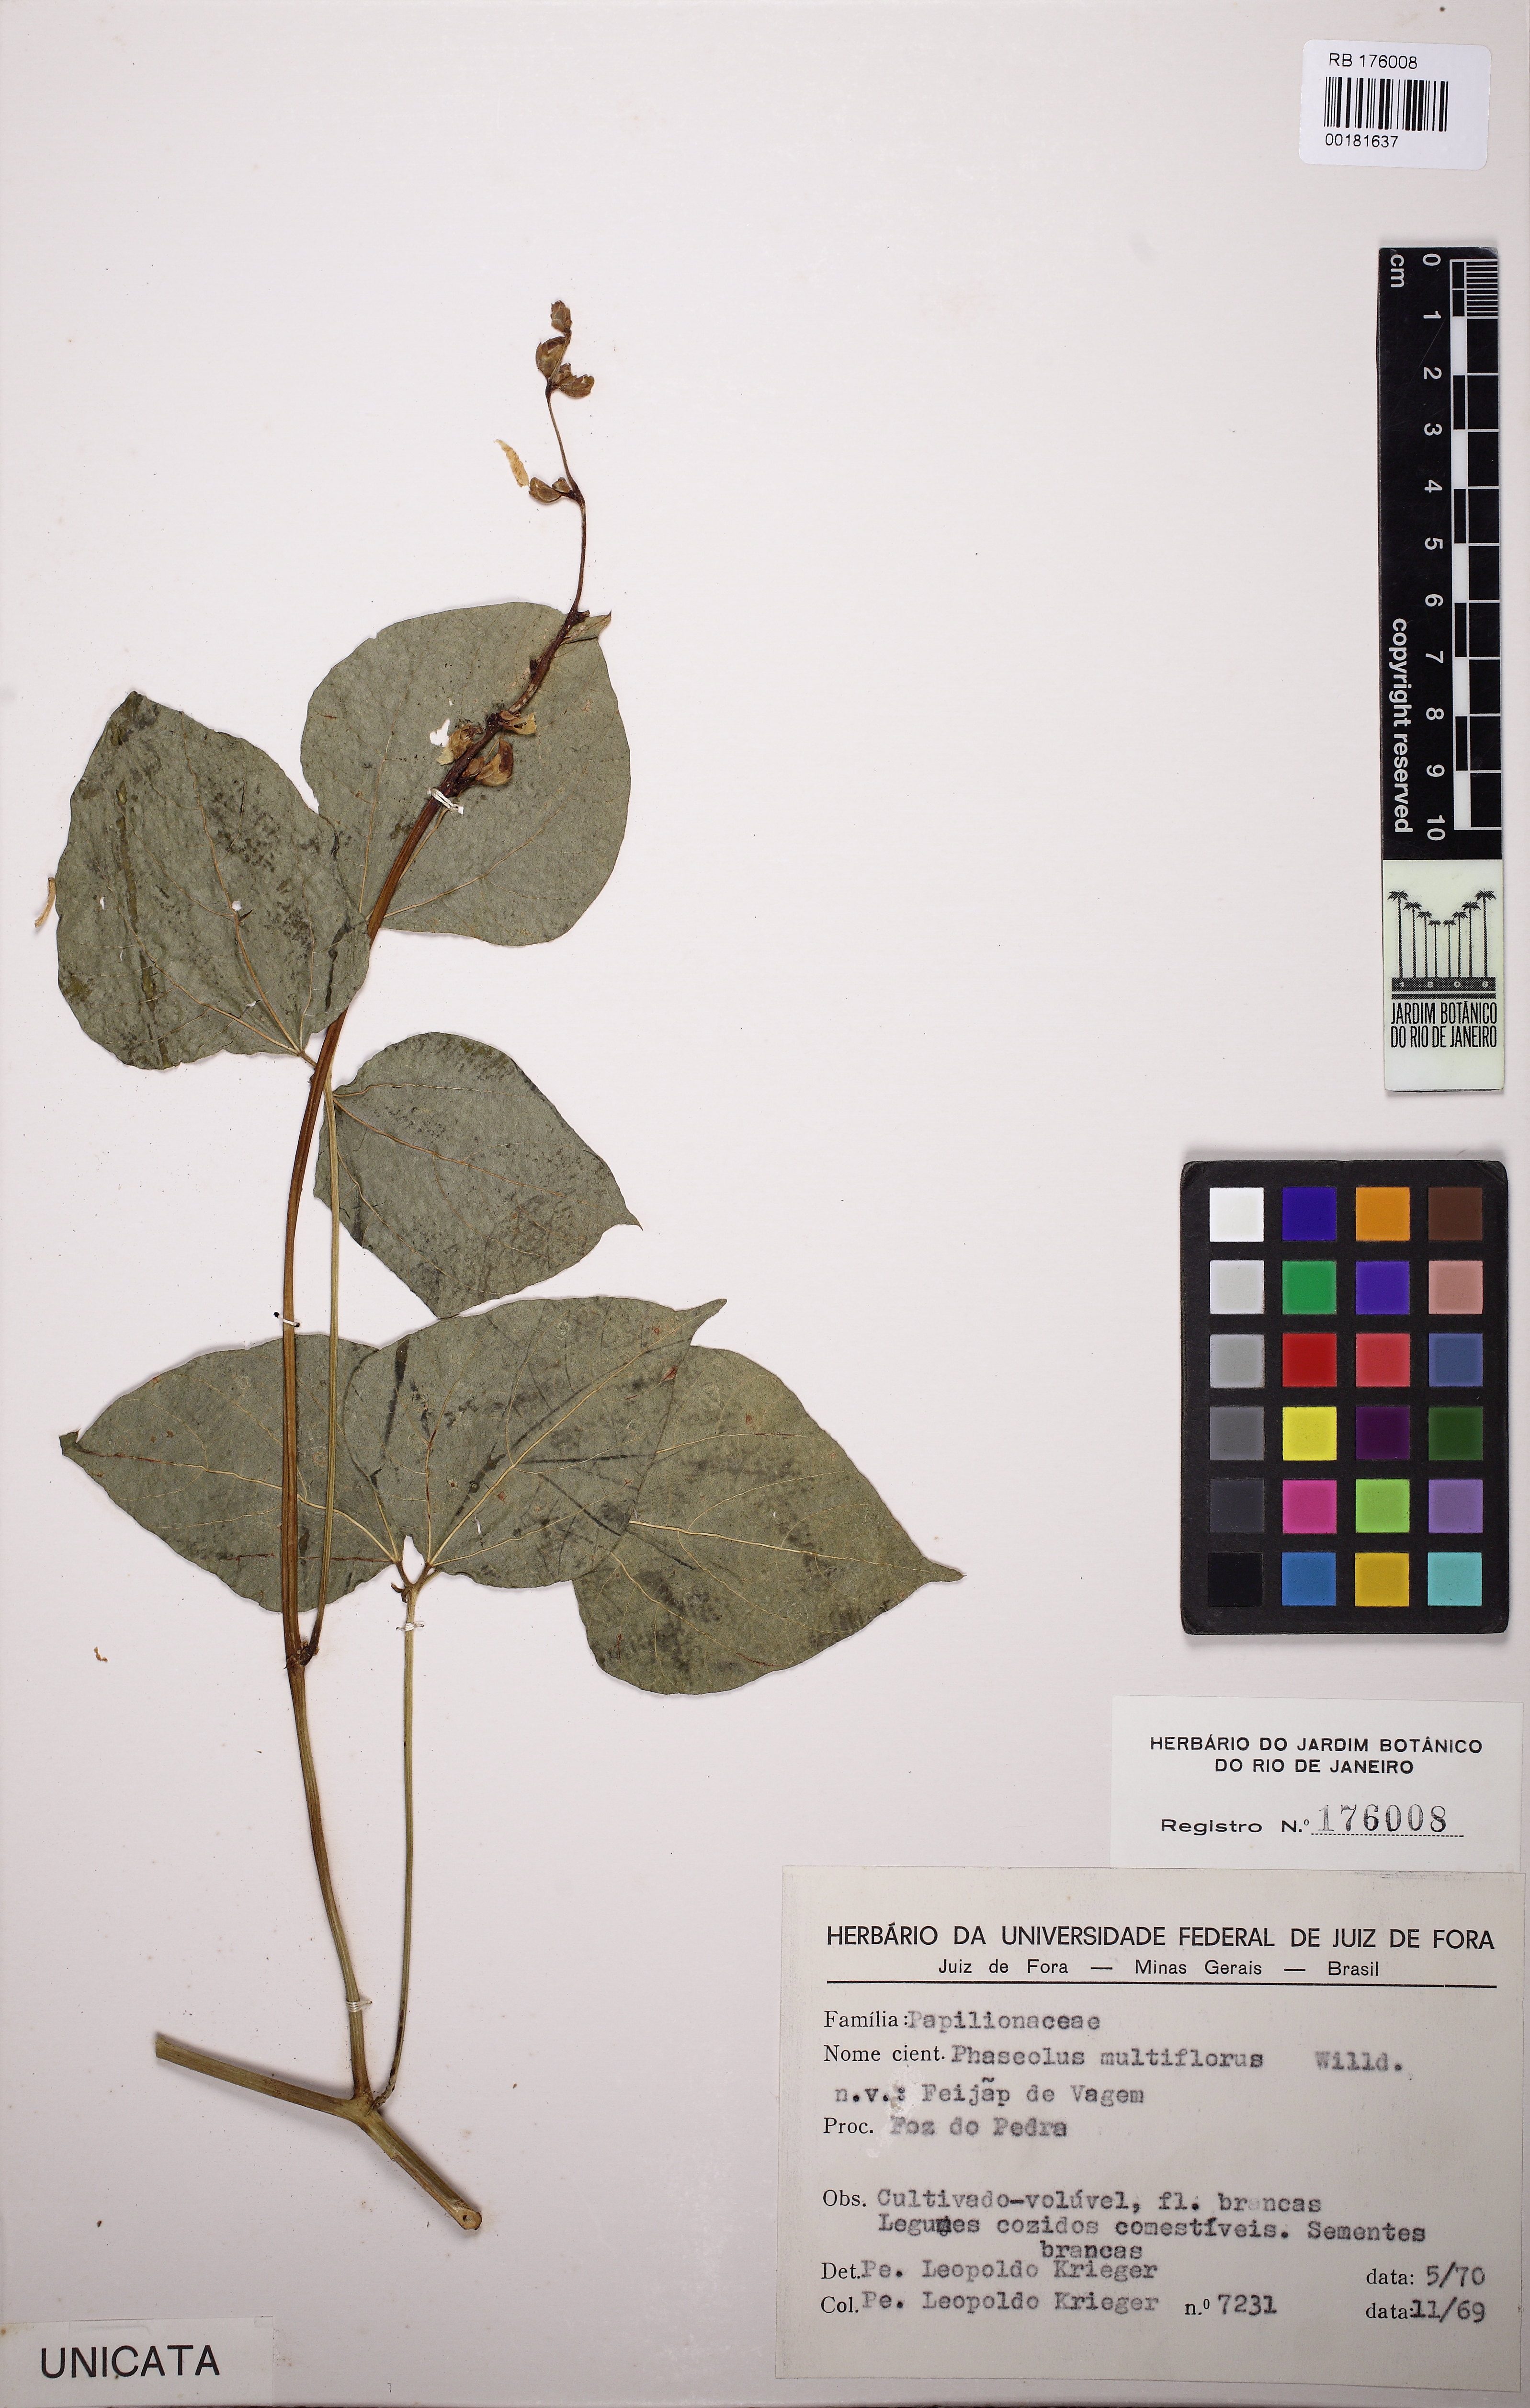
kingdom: Plantae
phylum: Tracheophyta
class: Magnoliopsida
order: Fabales
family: Fabaceae
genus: Phaseolus
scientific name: Phaseolus vulgaris
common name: Bean
